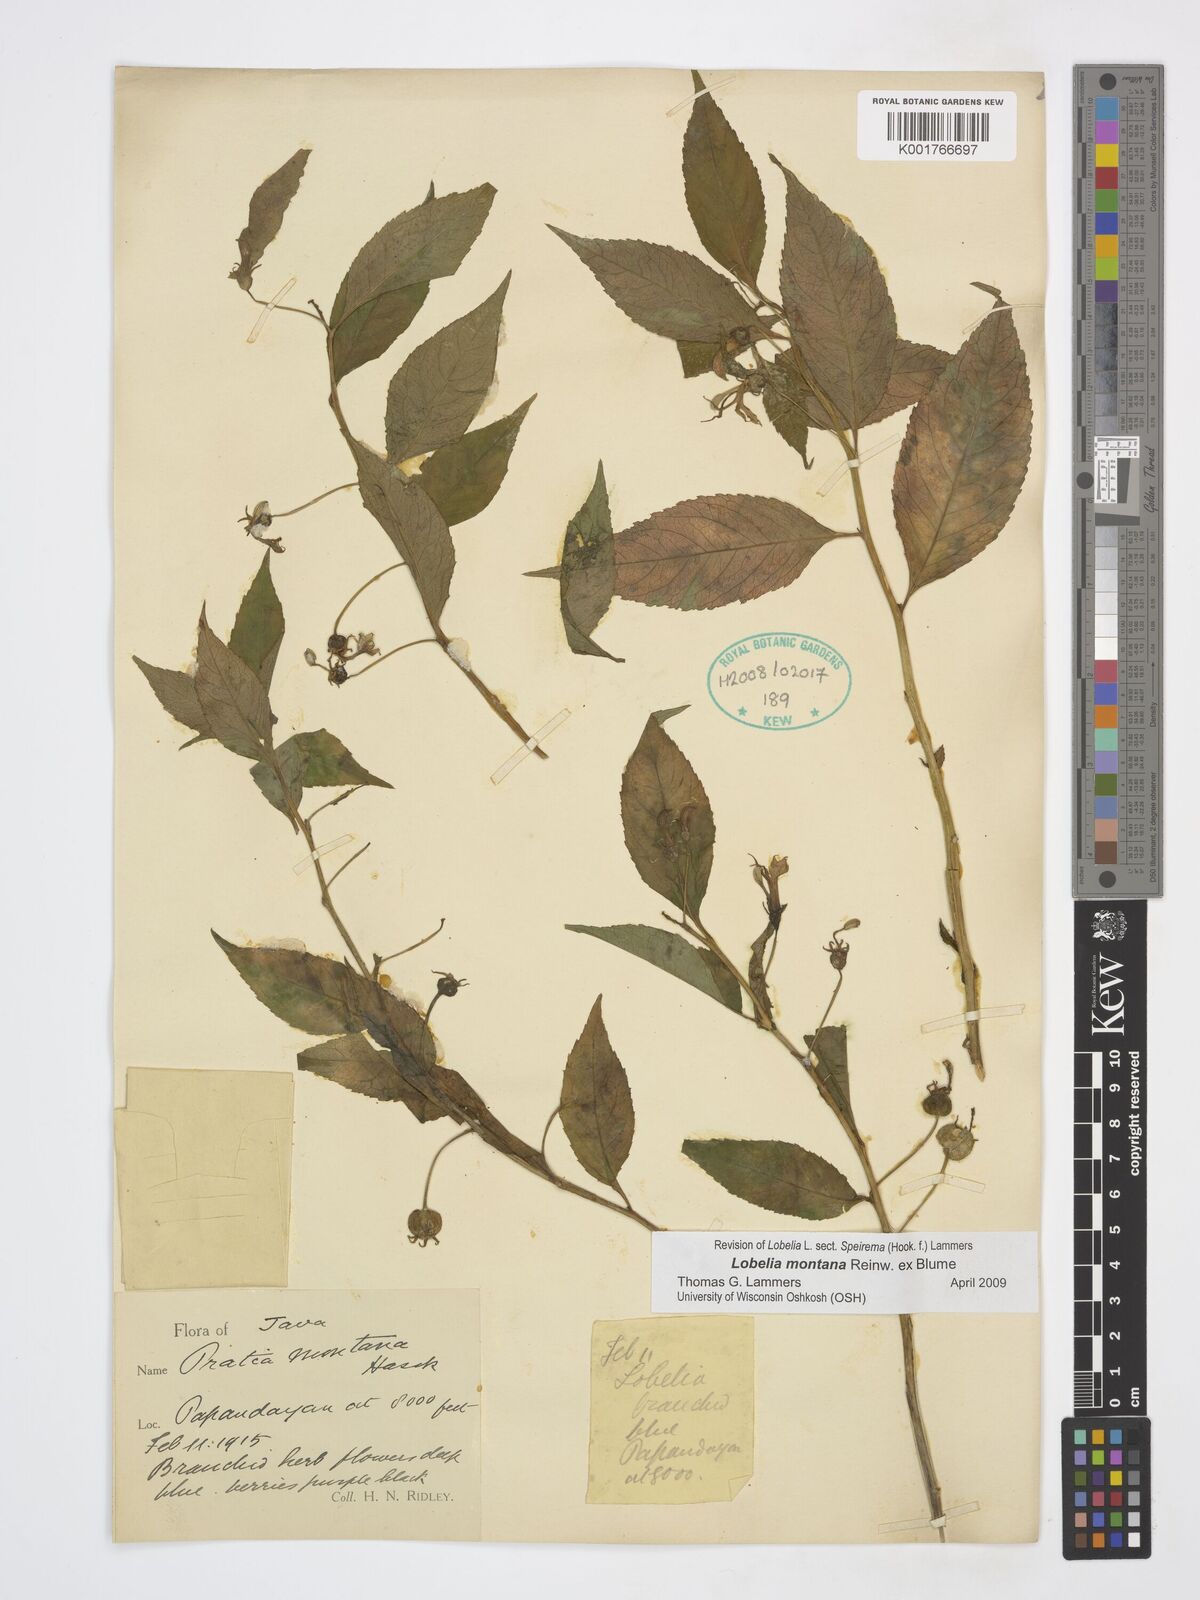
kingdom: Plantae
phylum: Tracheophyta
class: Magnoliopsida
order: Asterales
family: Campanulaceae
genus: Lobelia
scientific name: Lobelia montana
